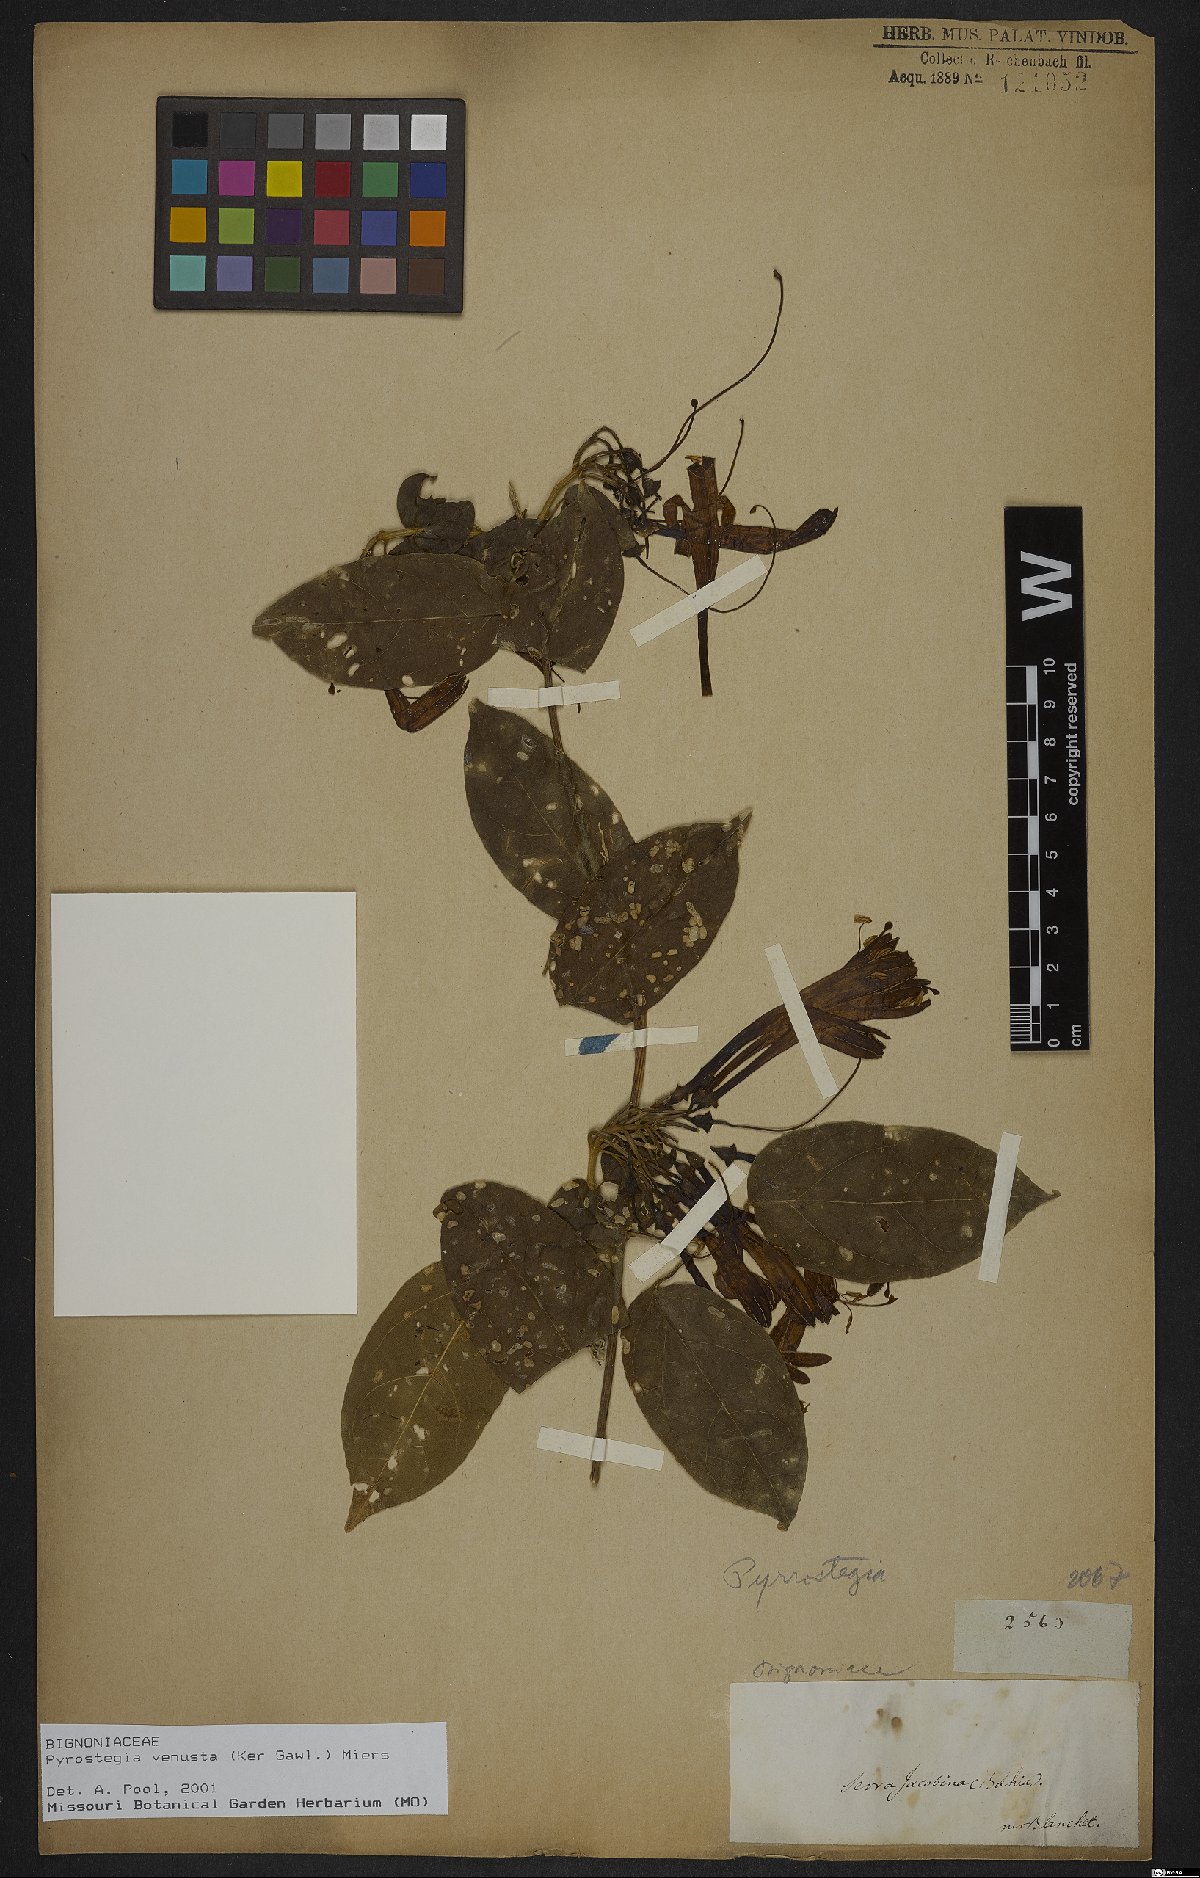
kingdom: Plantae
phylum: Tracheophyta
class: Magnoliopsida
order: Lamiales
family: Bignoniaceae
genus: Pyrostegia
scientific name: Pyrostegia venusta
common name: Flamevine
